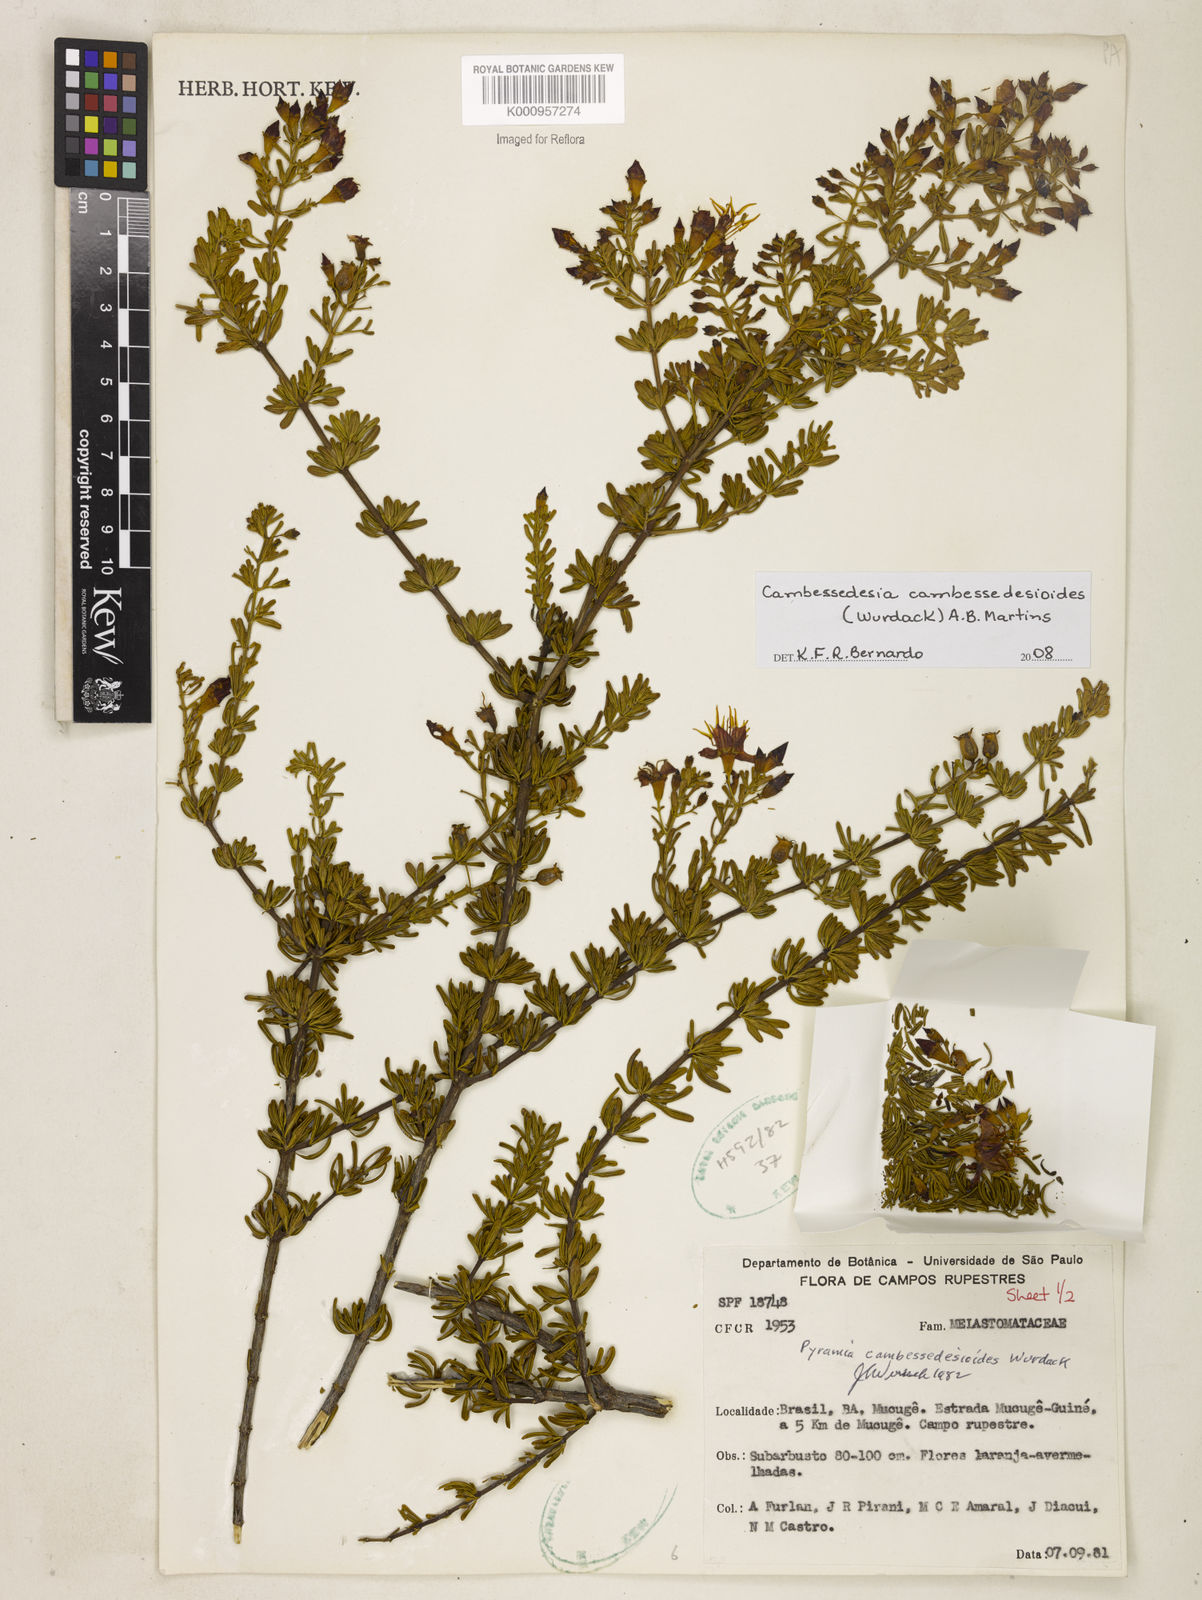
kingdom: Plantae
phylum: Tracheophyta
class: Magnoliopsida
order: Myrtales
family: Melastomataceae
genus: Cambessedesia
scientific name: Cambessedesia cambessedesioides
